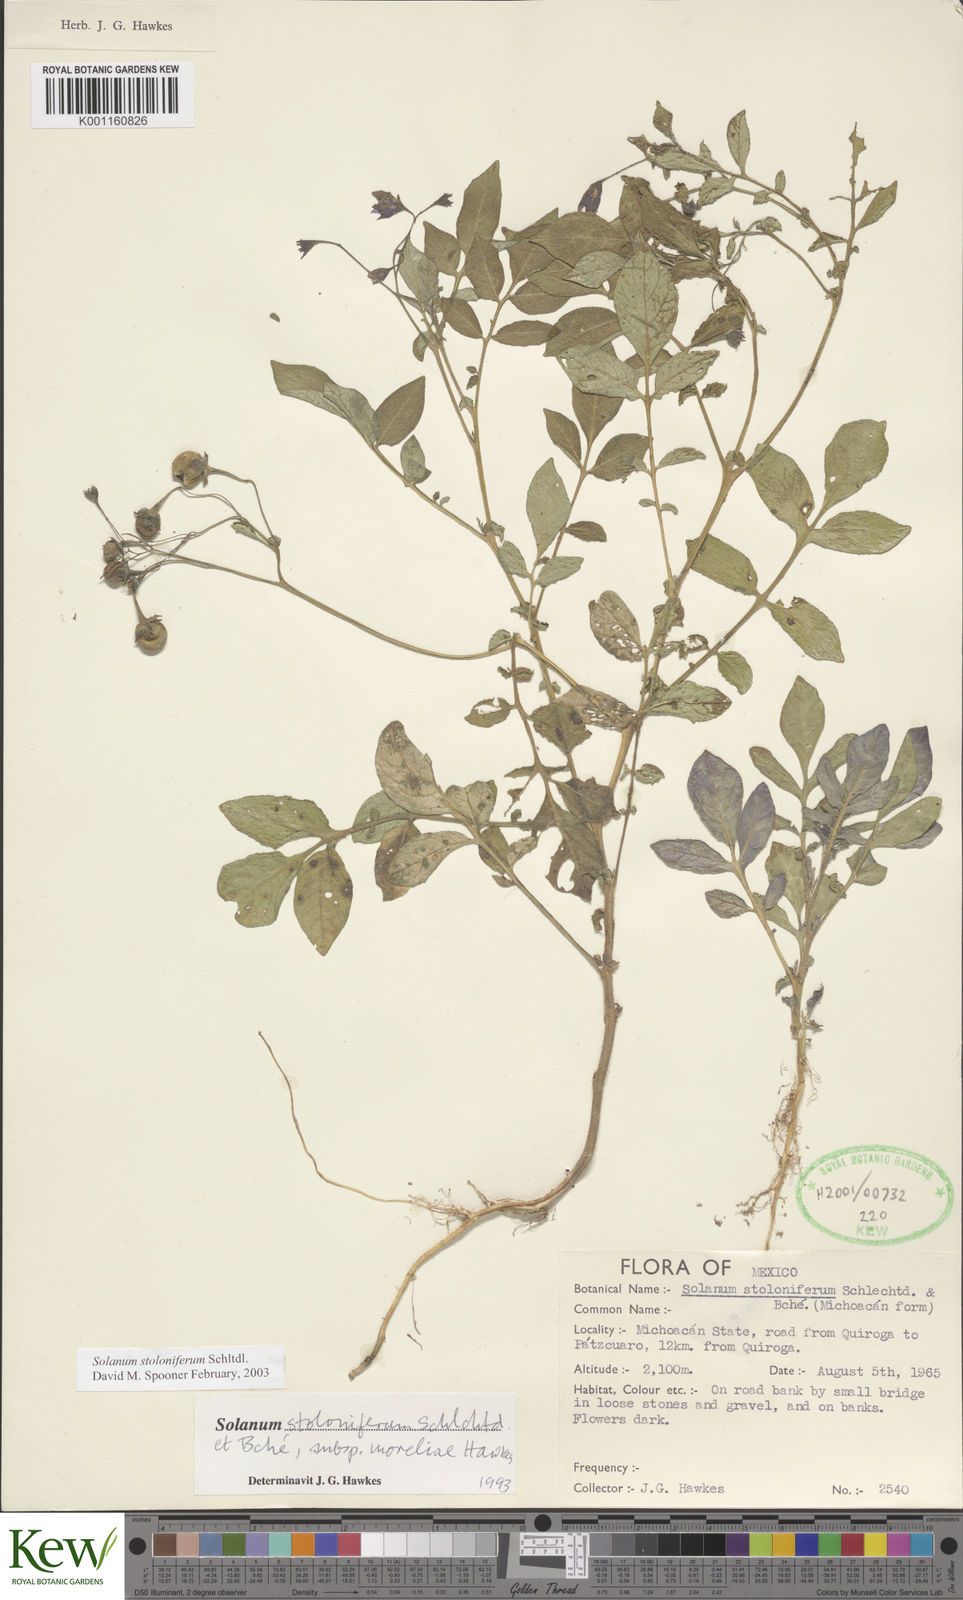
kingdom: Plantae
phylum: Tracheophyta
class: Magnoliopsida
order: Solanales
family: Solanaceae
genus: Solanum
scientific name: Solanum stoloniferum
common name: Fendler's nighshade
